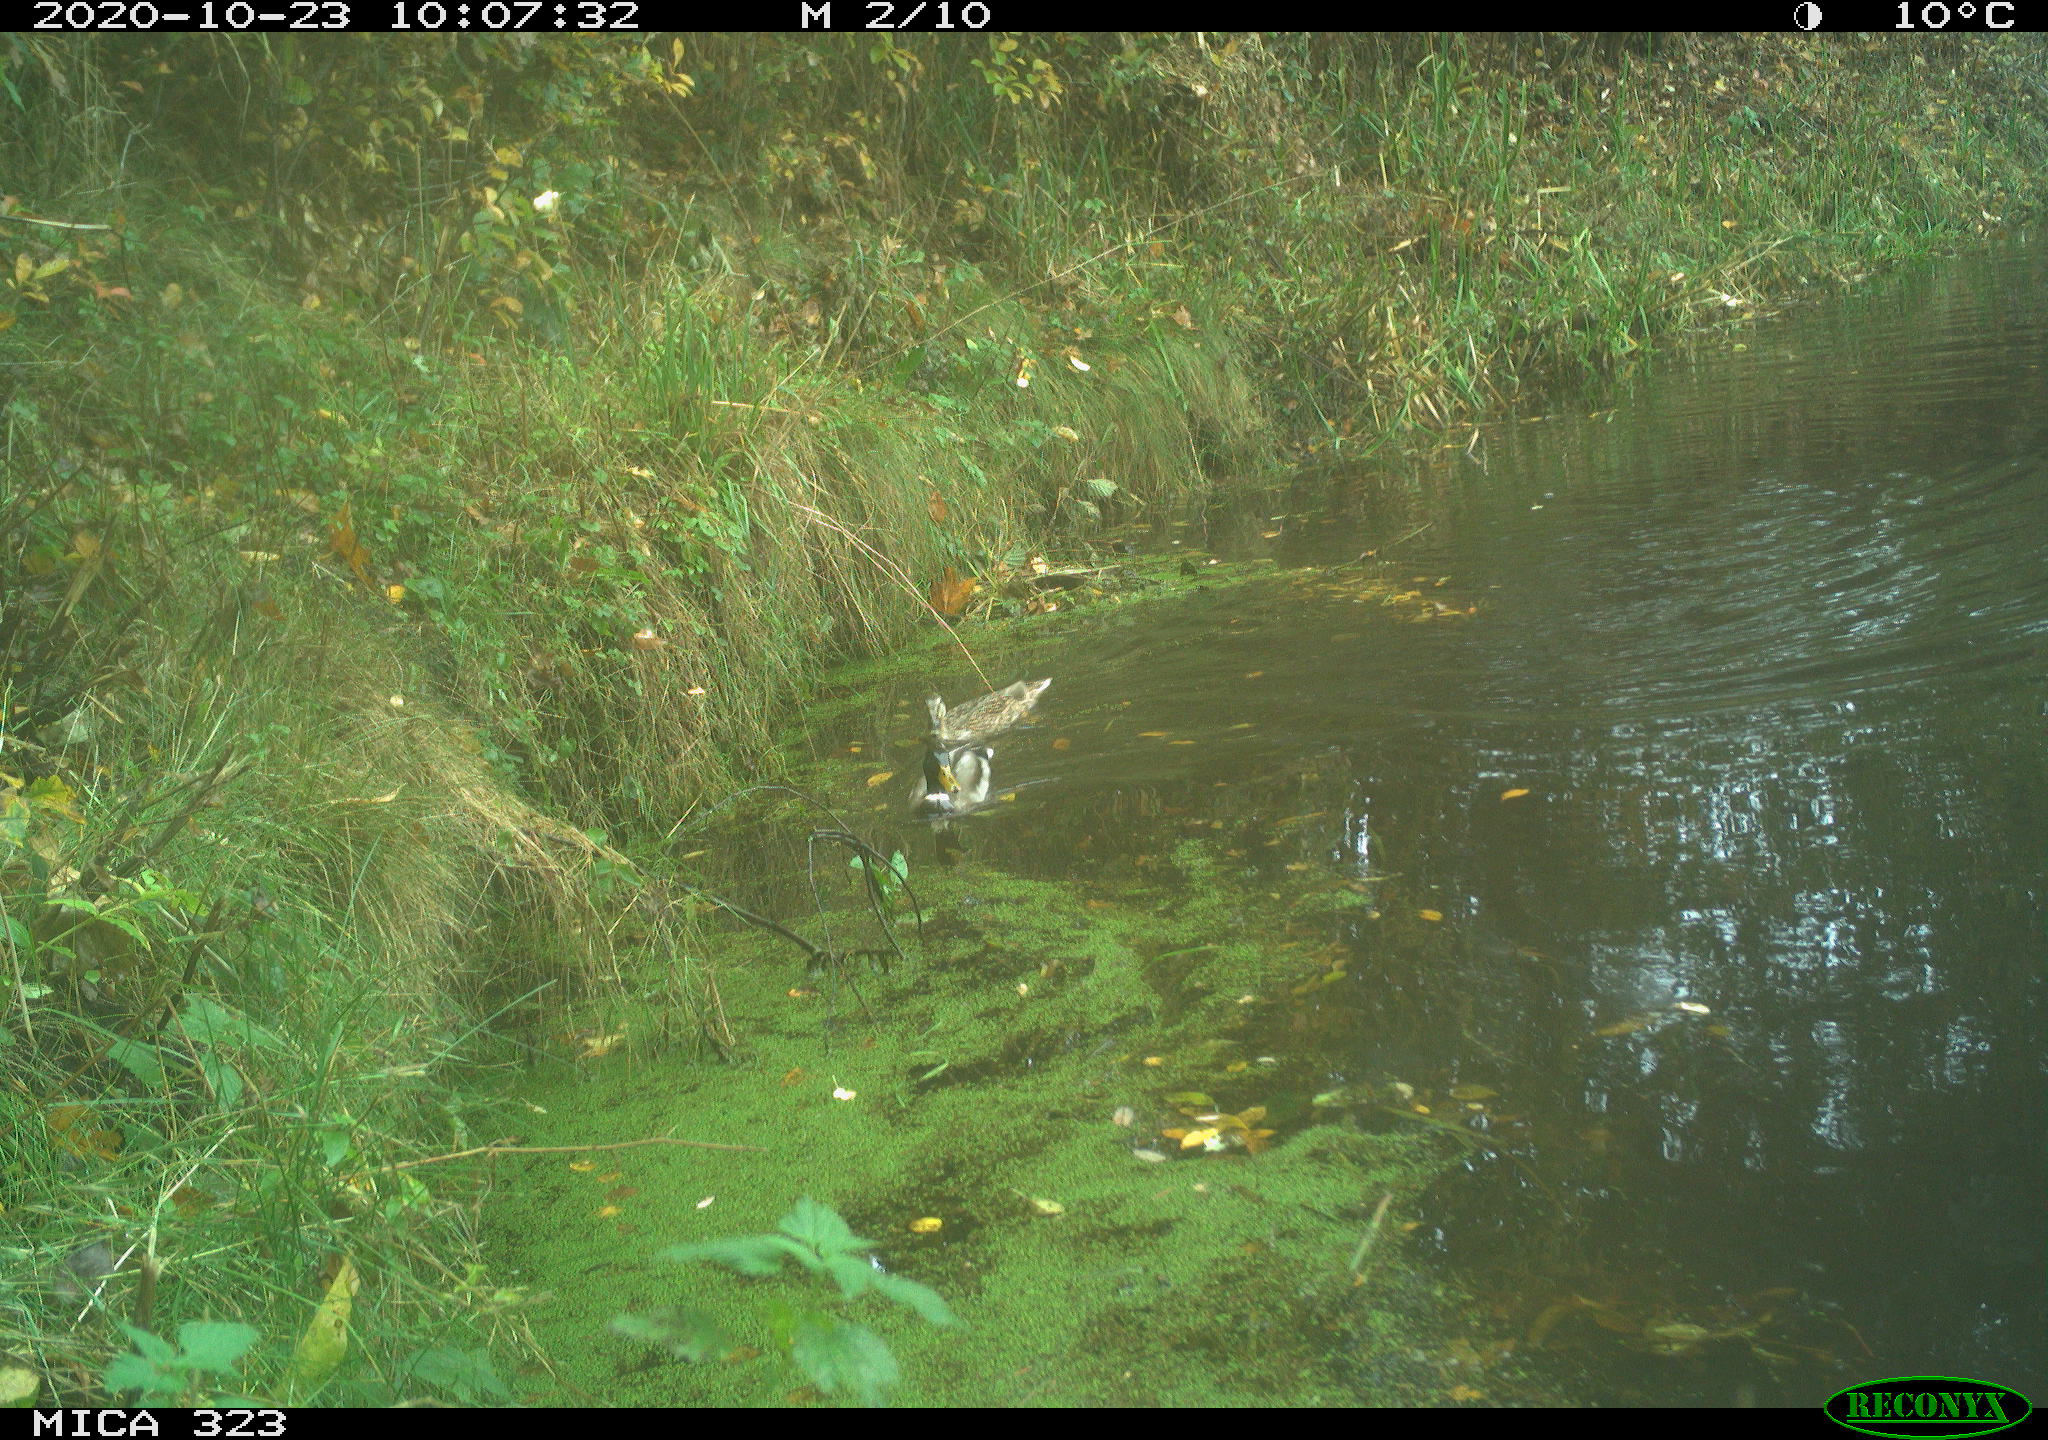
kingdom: Animalia
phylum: Chordata
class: Aves
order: Anseriformes
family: Anatidae
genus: Anas
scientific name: Anas platyrhynchos
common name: Mallard
